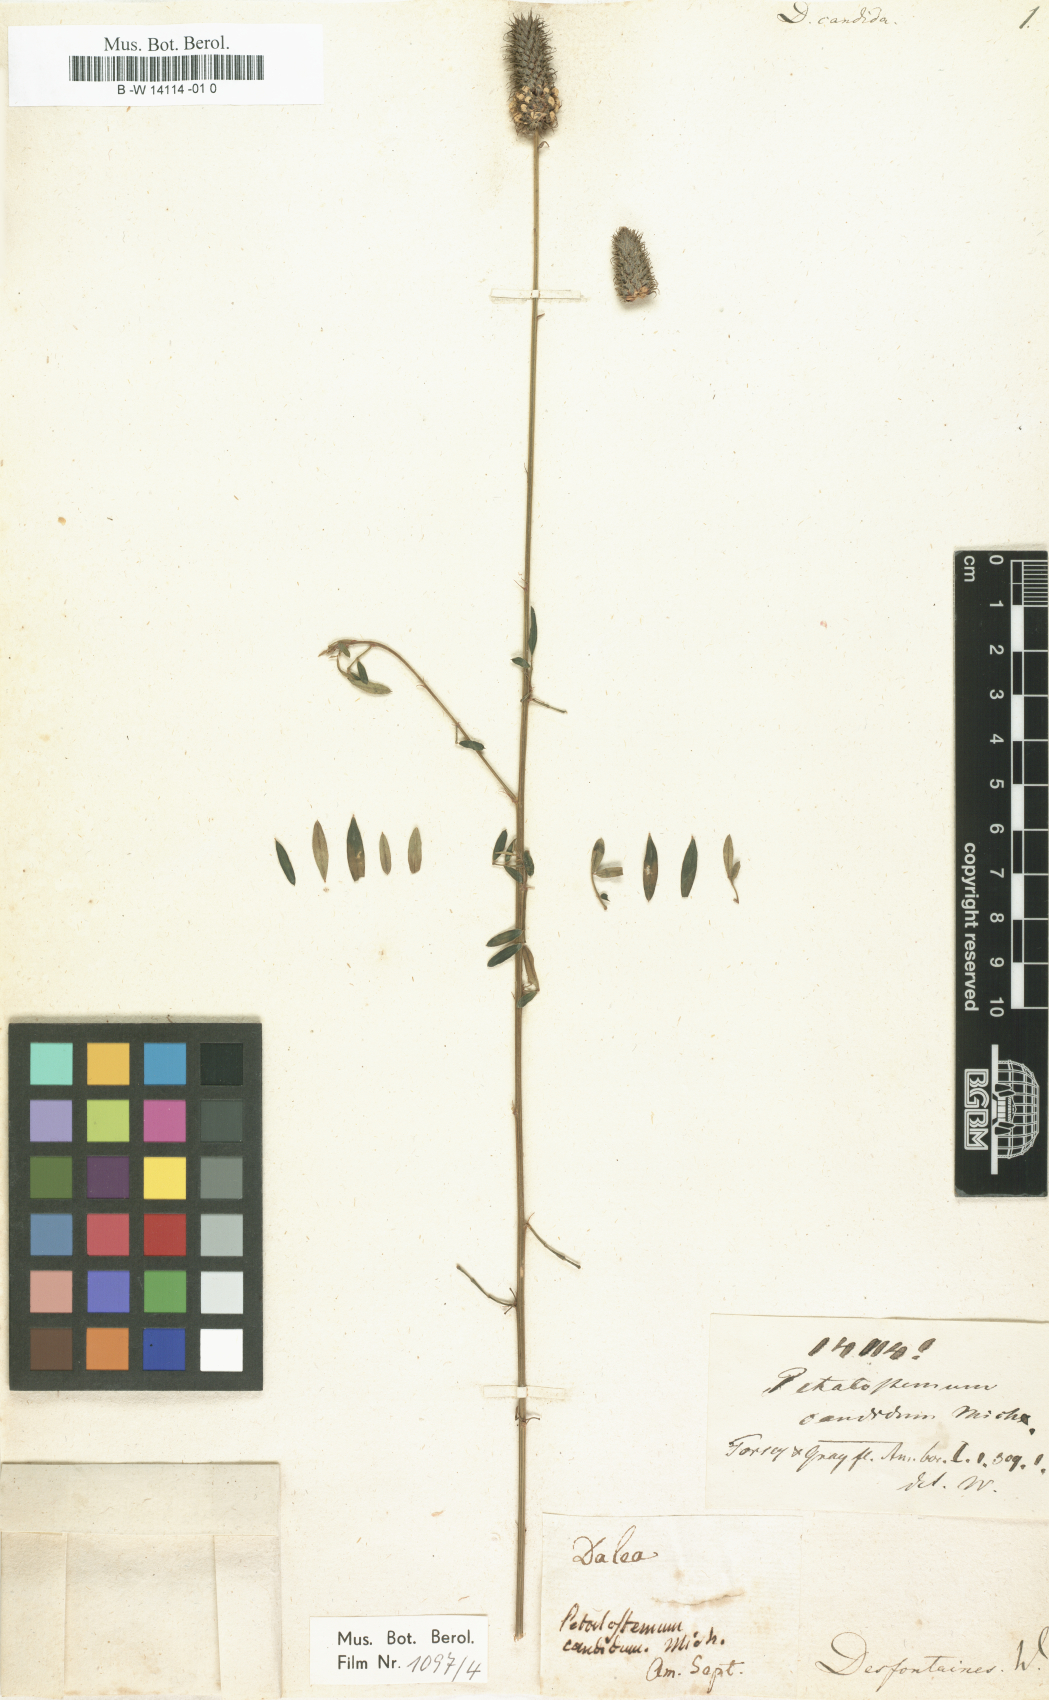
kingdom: Plantae
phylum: Tracheophyta
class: Magnoliopsida
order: Fabales
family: Fabaceae
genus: Dalea
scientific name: Dalea candida
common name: White prairie-clover
